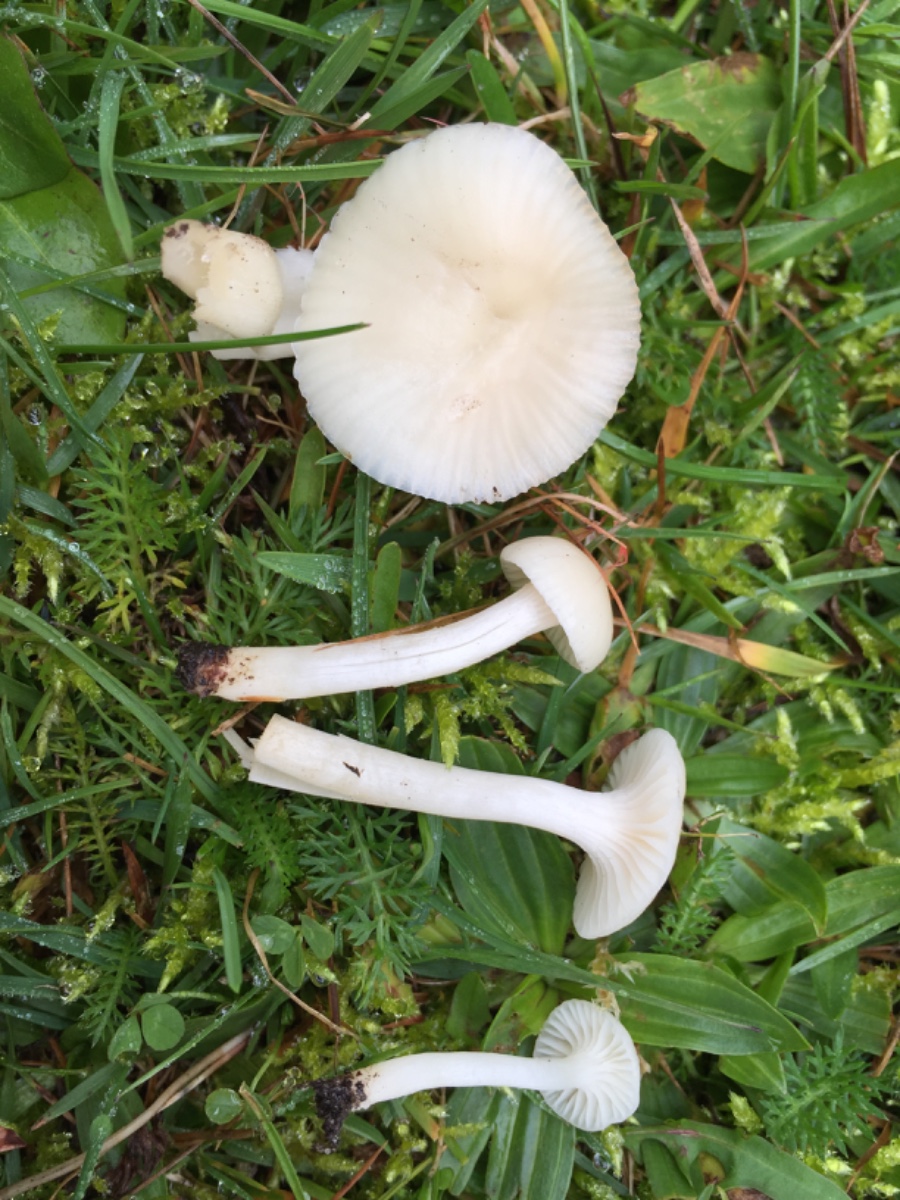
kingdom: Fungi
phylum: Basidiomycota
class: Agaricomycetes
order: Agaricales
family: Hygrophoraceae
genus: Cuphophyllus
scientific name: Cuphophyllus virgineus
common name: snehvid vokshat
